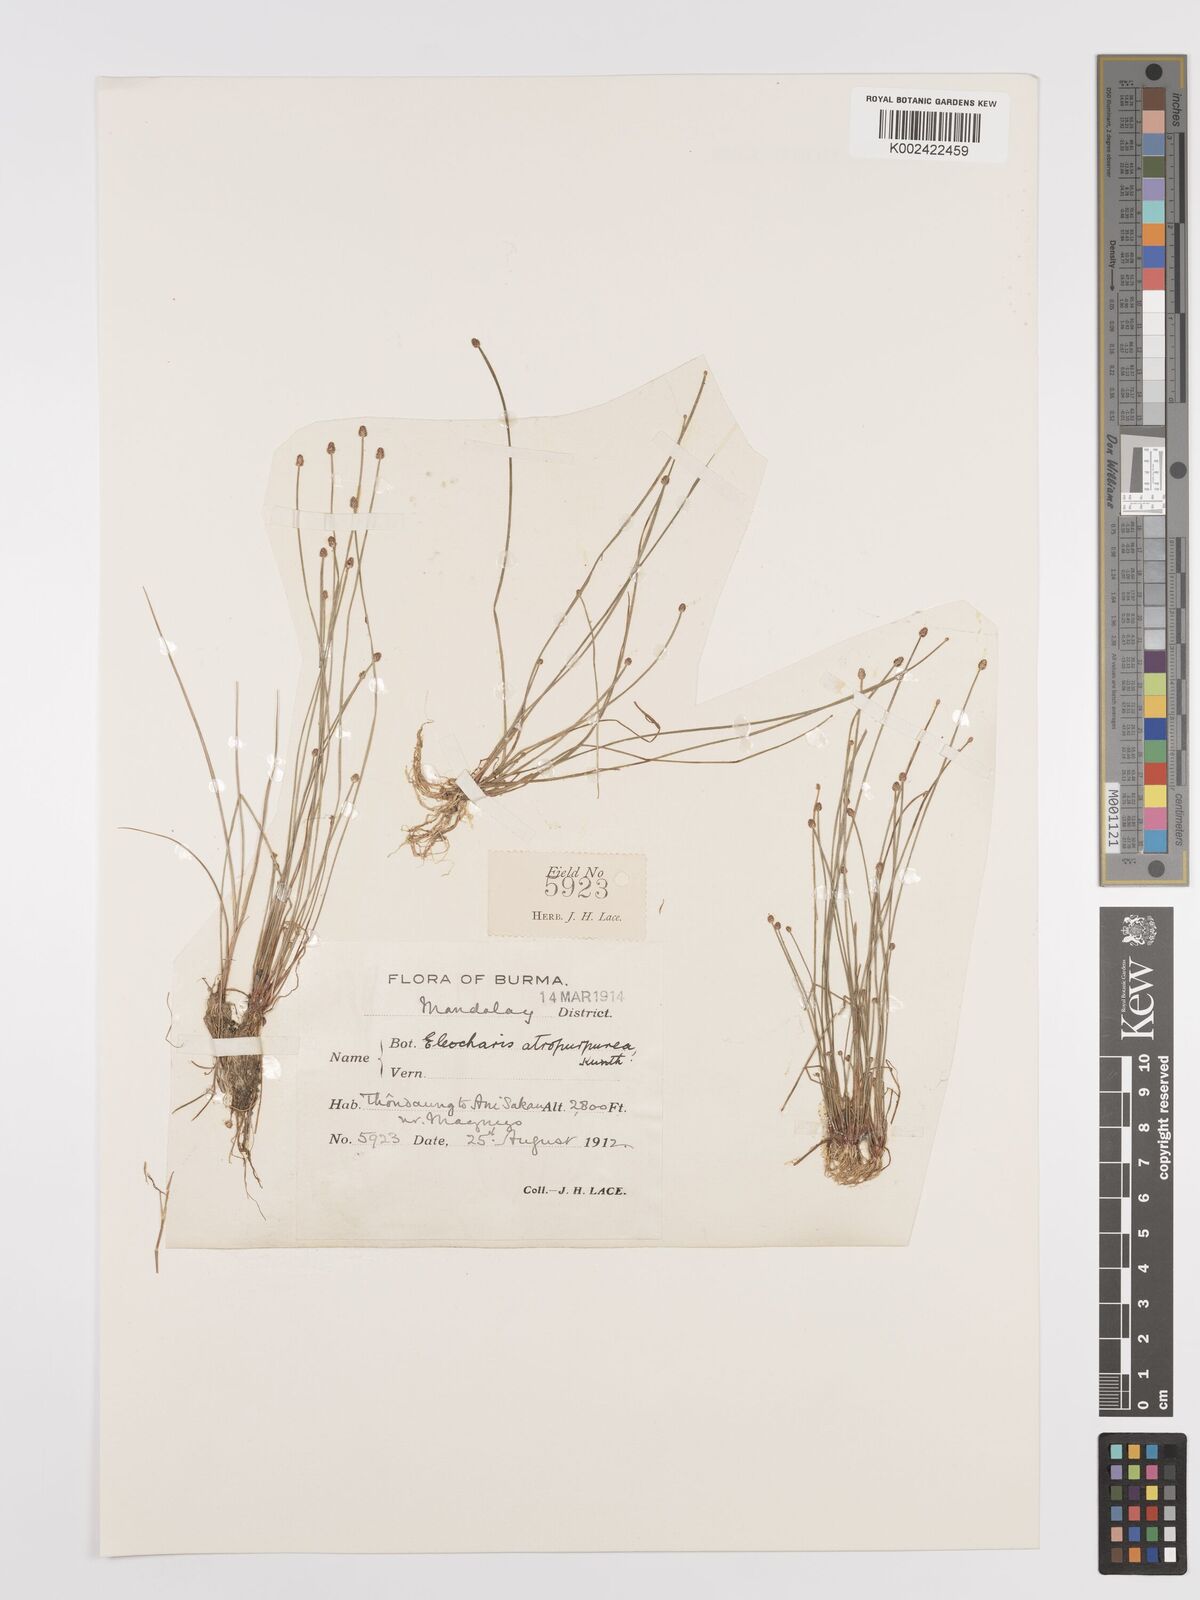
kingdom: Plantae
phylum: Tracheophyta
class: Liliopsida
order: Poales
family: Cyperaceae
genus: Eleocharis
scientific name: Eleocharis atropurpurea
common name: Purple spikerush
